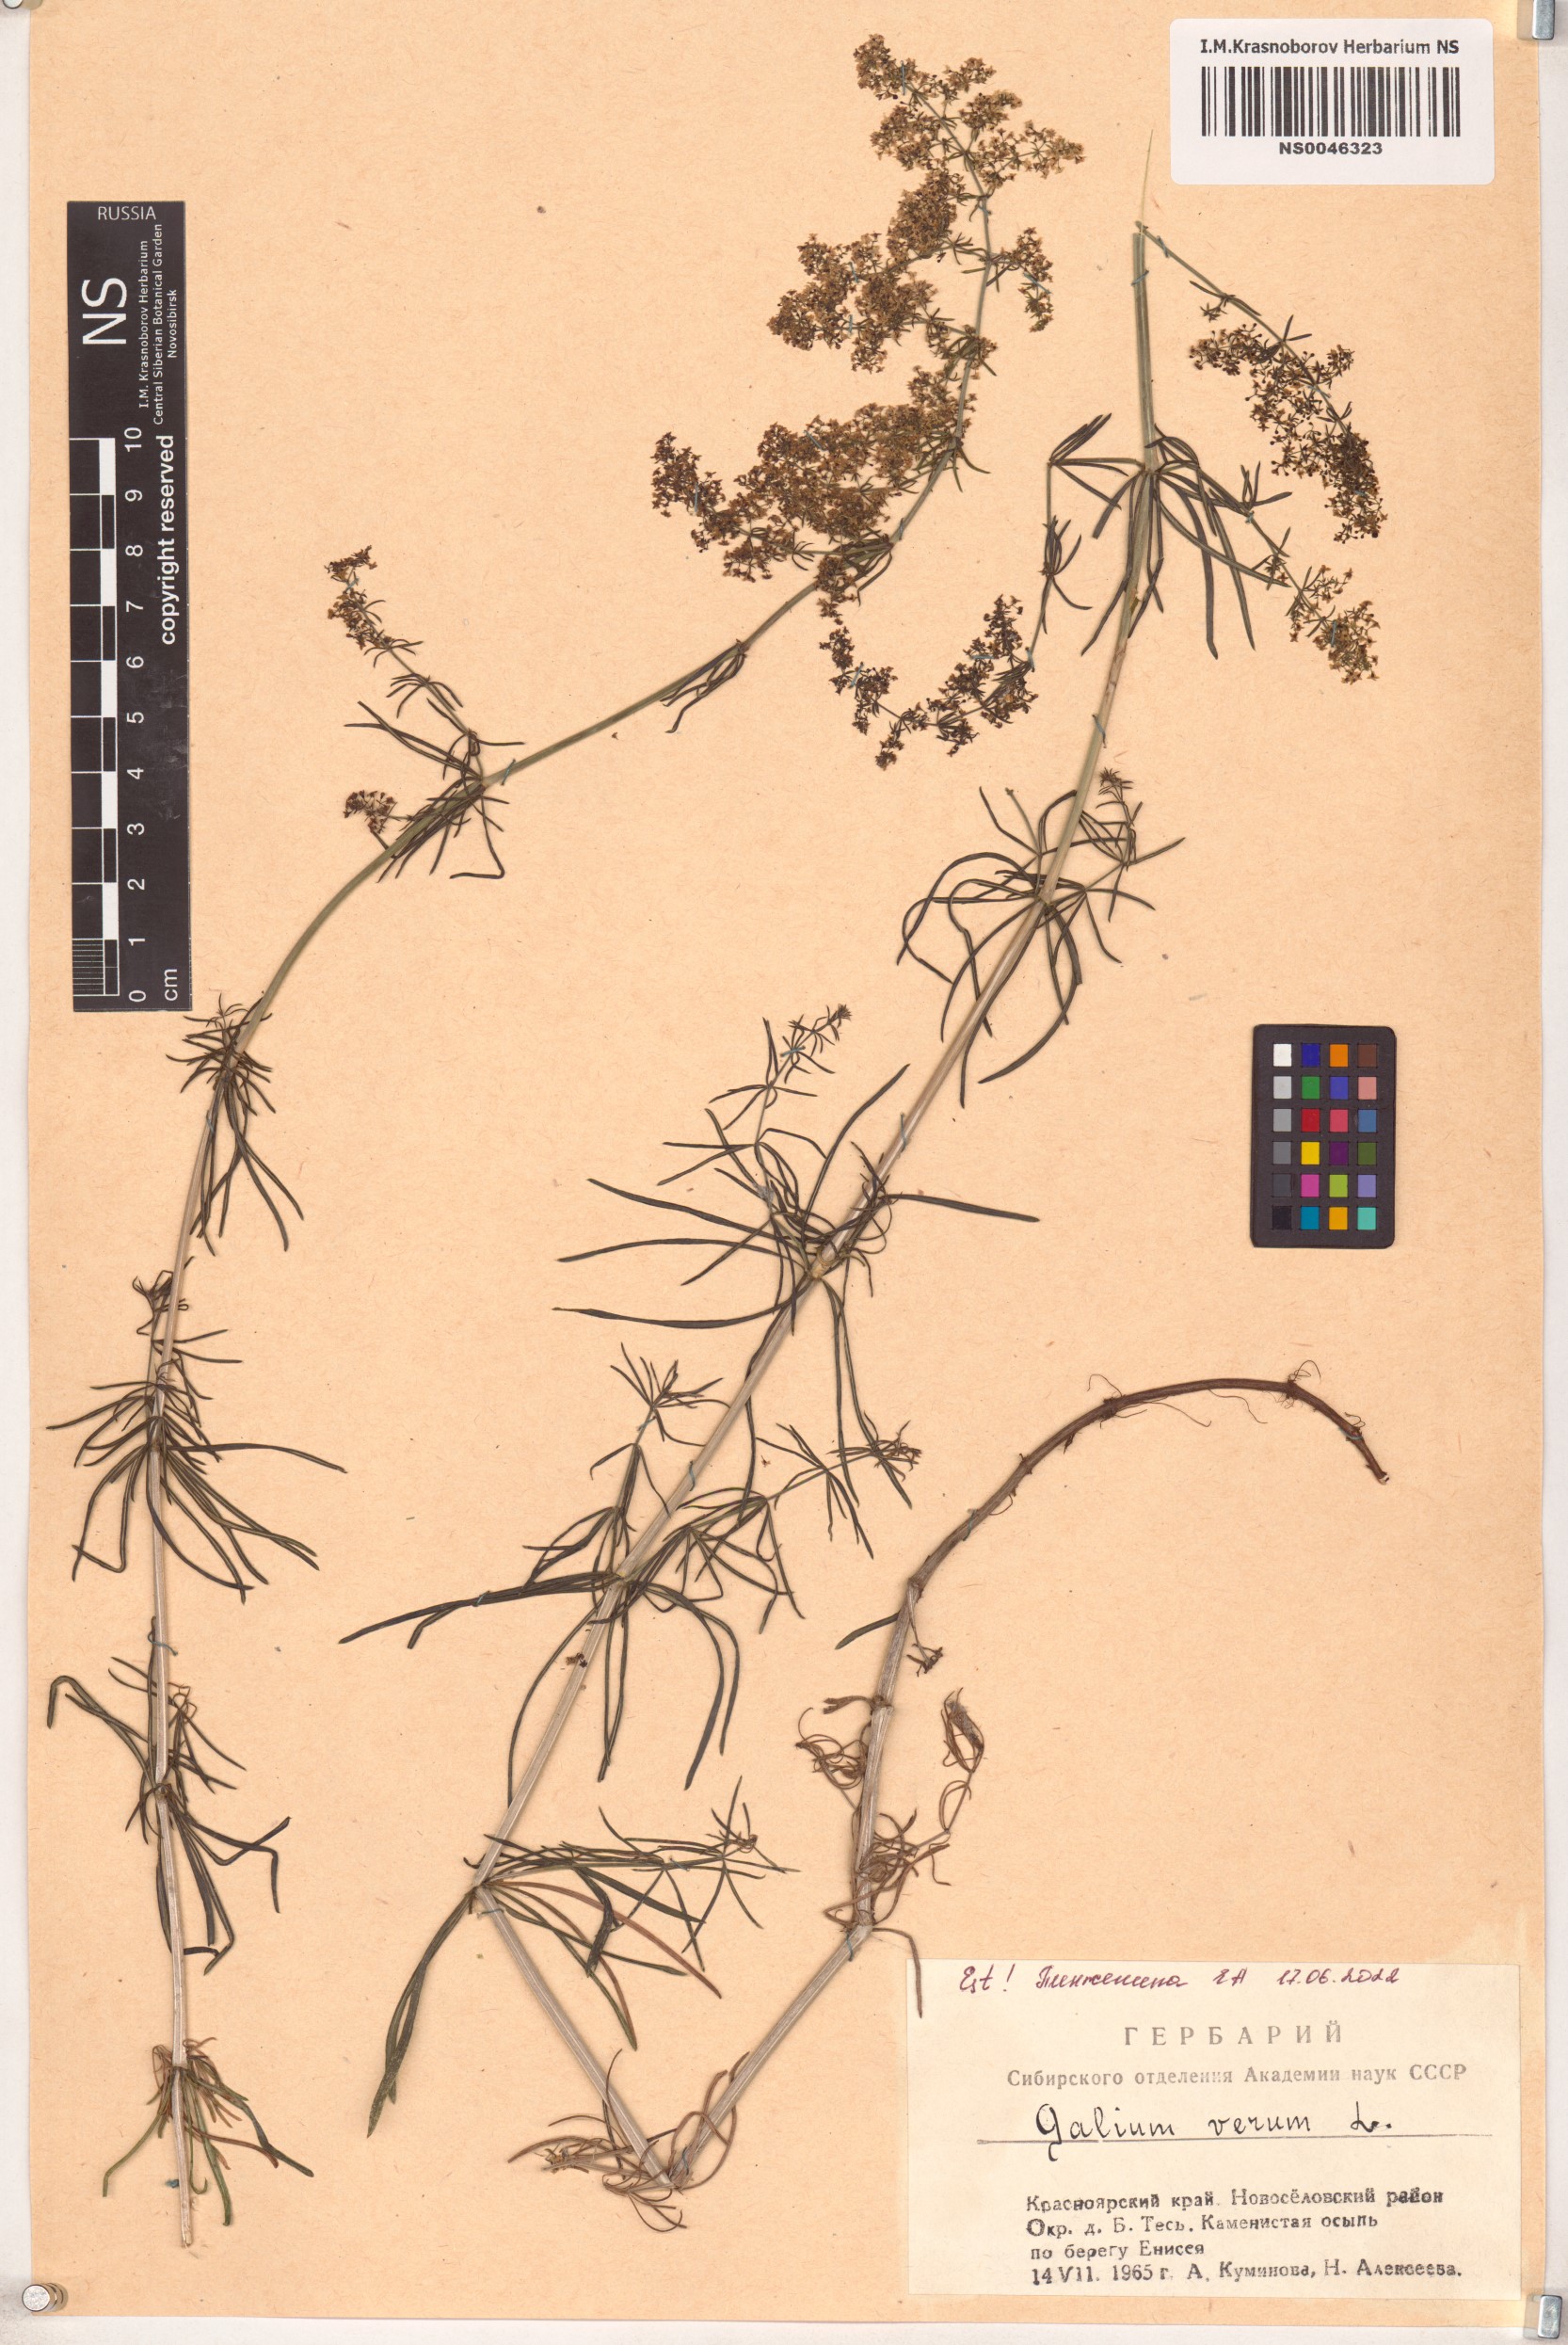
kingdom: Plantae
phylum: Tracheophyta
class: Magnoliopsida
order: Gentianales
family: Rubiaceae
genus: Galium
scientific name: Galium verum
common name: Lady's bedstraw
